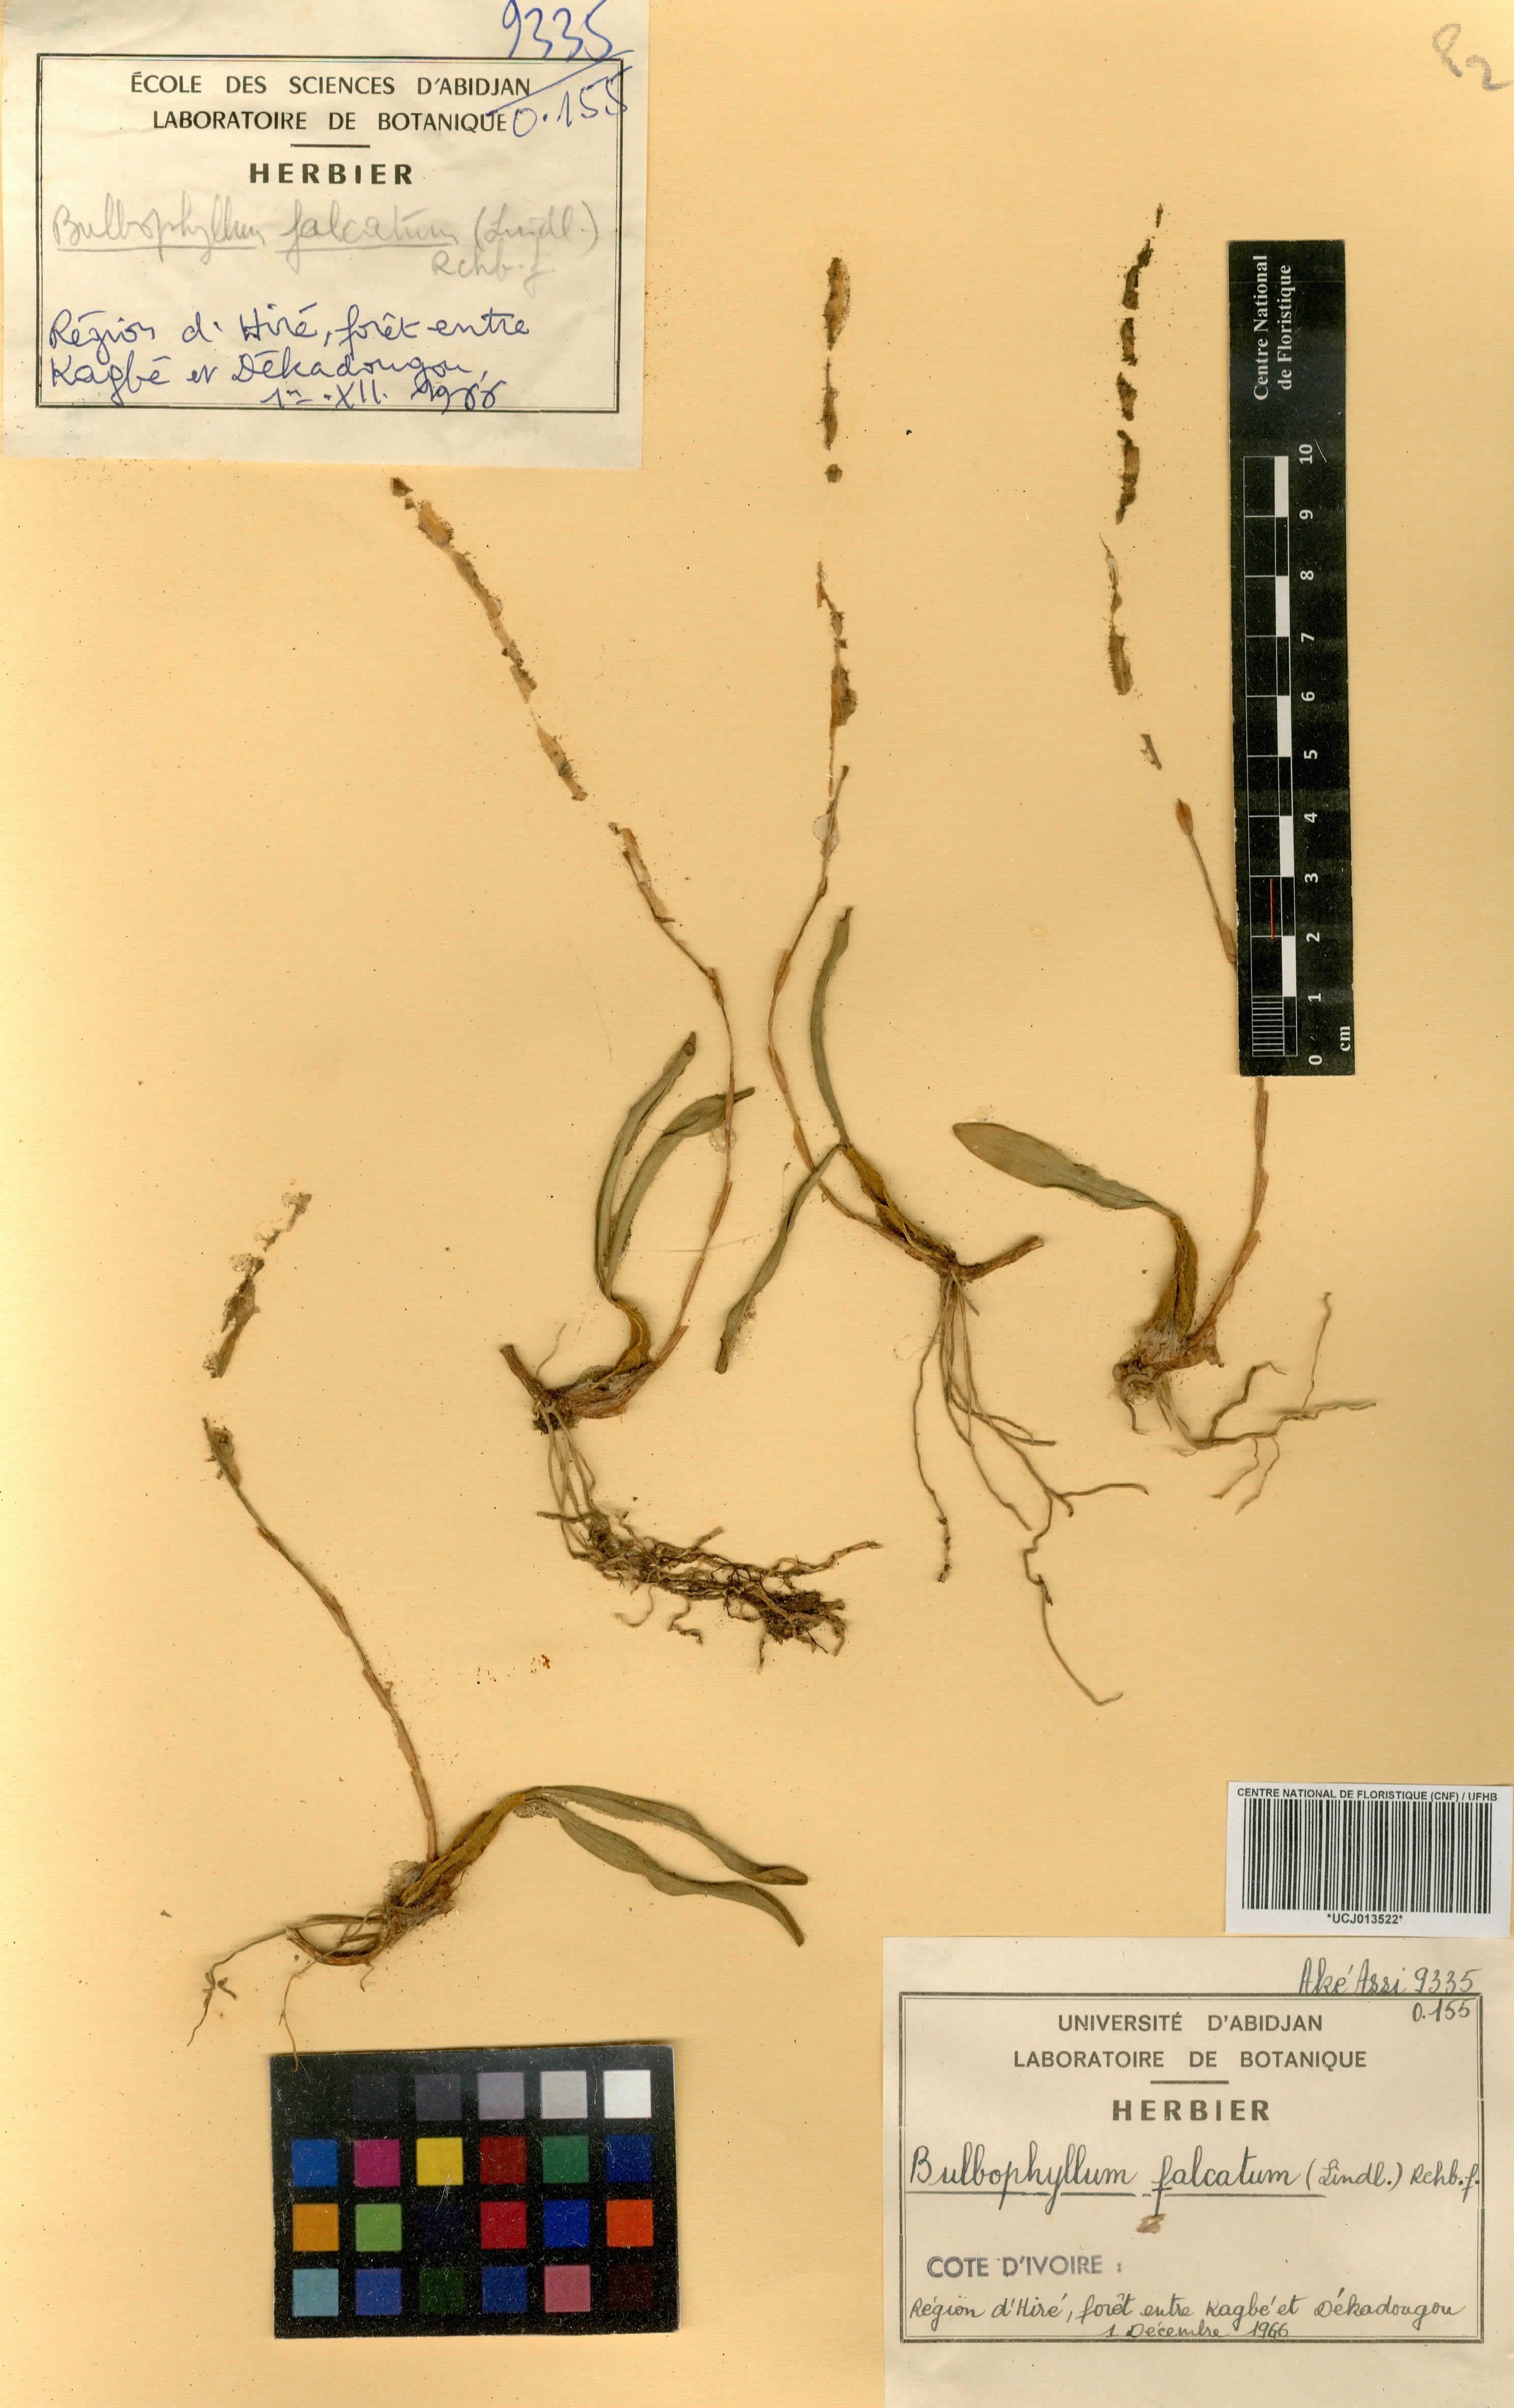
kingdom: Plantae
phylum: Tracheophyta
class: Liliopsida
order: Asparagales
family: Orchidaceae
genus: Bulbophyllum
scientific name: Bulbophyllum falcatum
